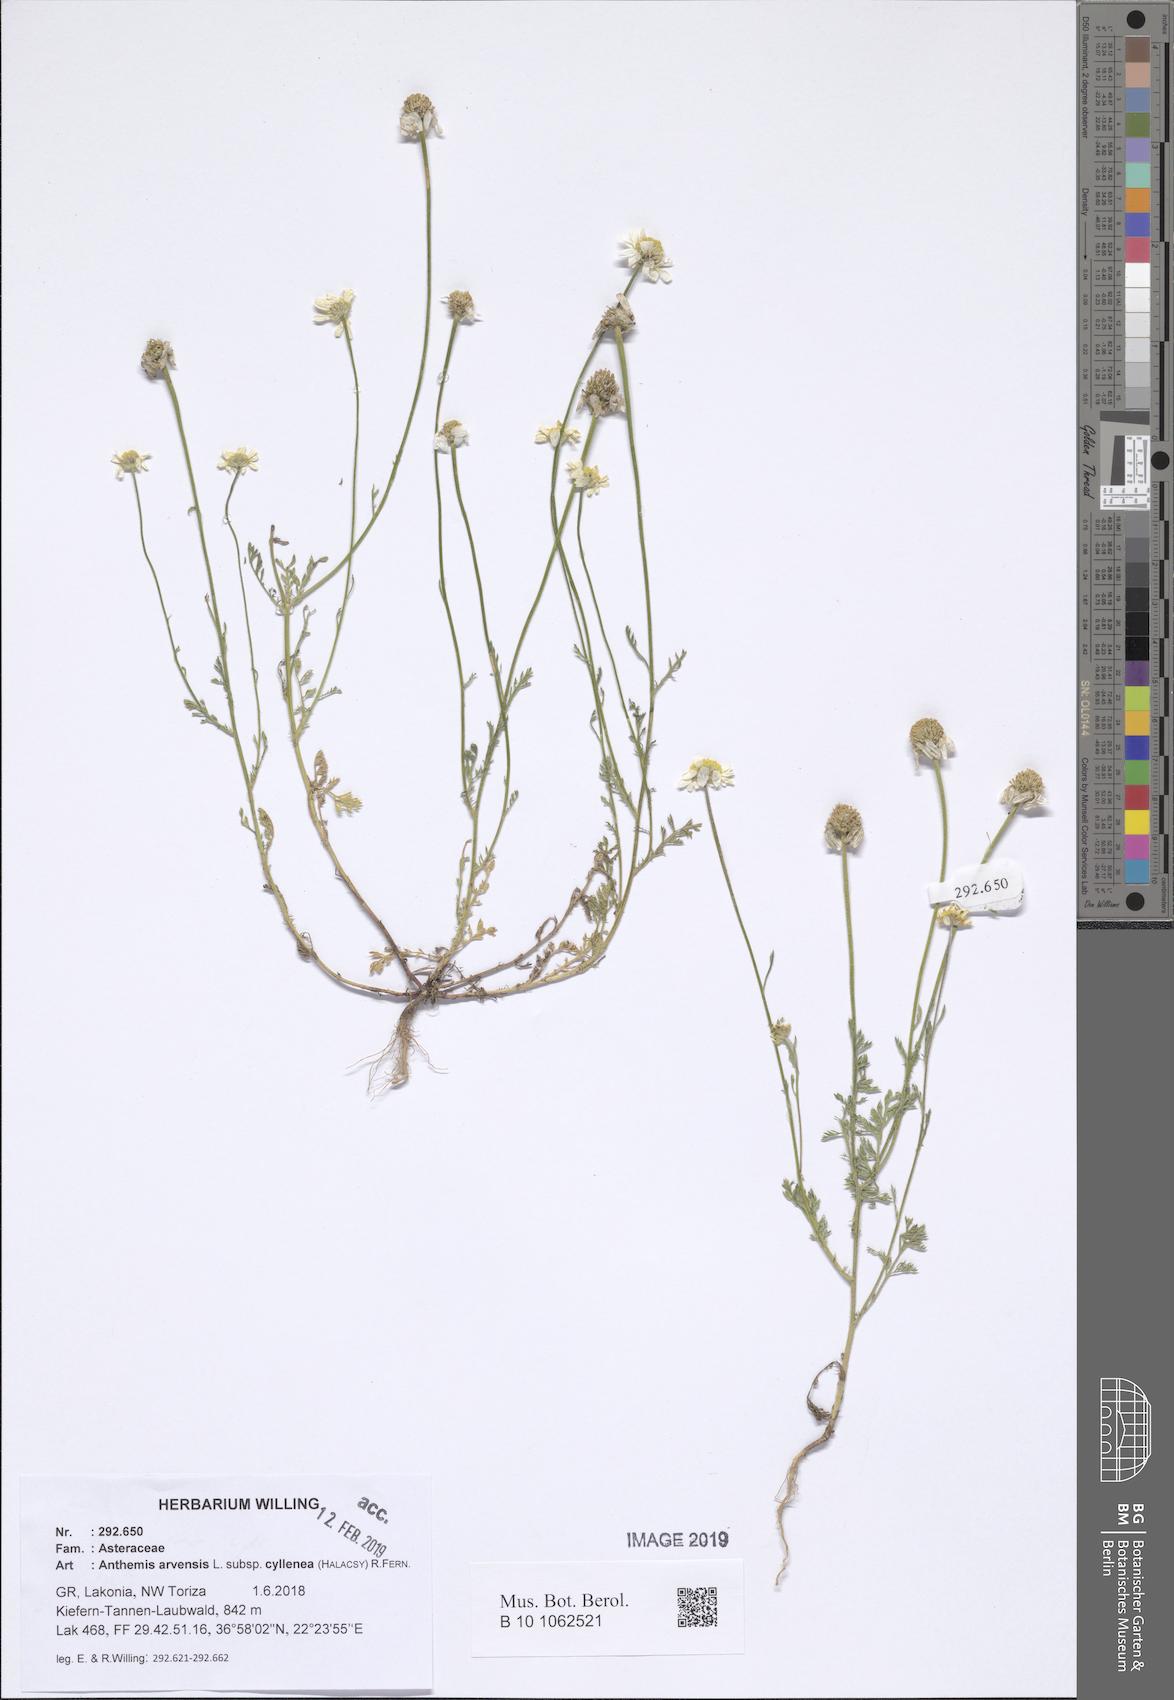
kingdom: Plantae
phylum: Tracheophyta
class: Magnoliopsida
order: Asterales
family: Asteraceae
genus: Anthemis
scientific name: Anthemis arvensis
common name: Corn chamomile
